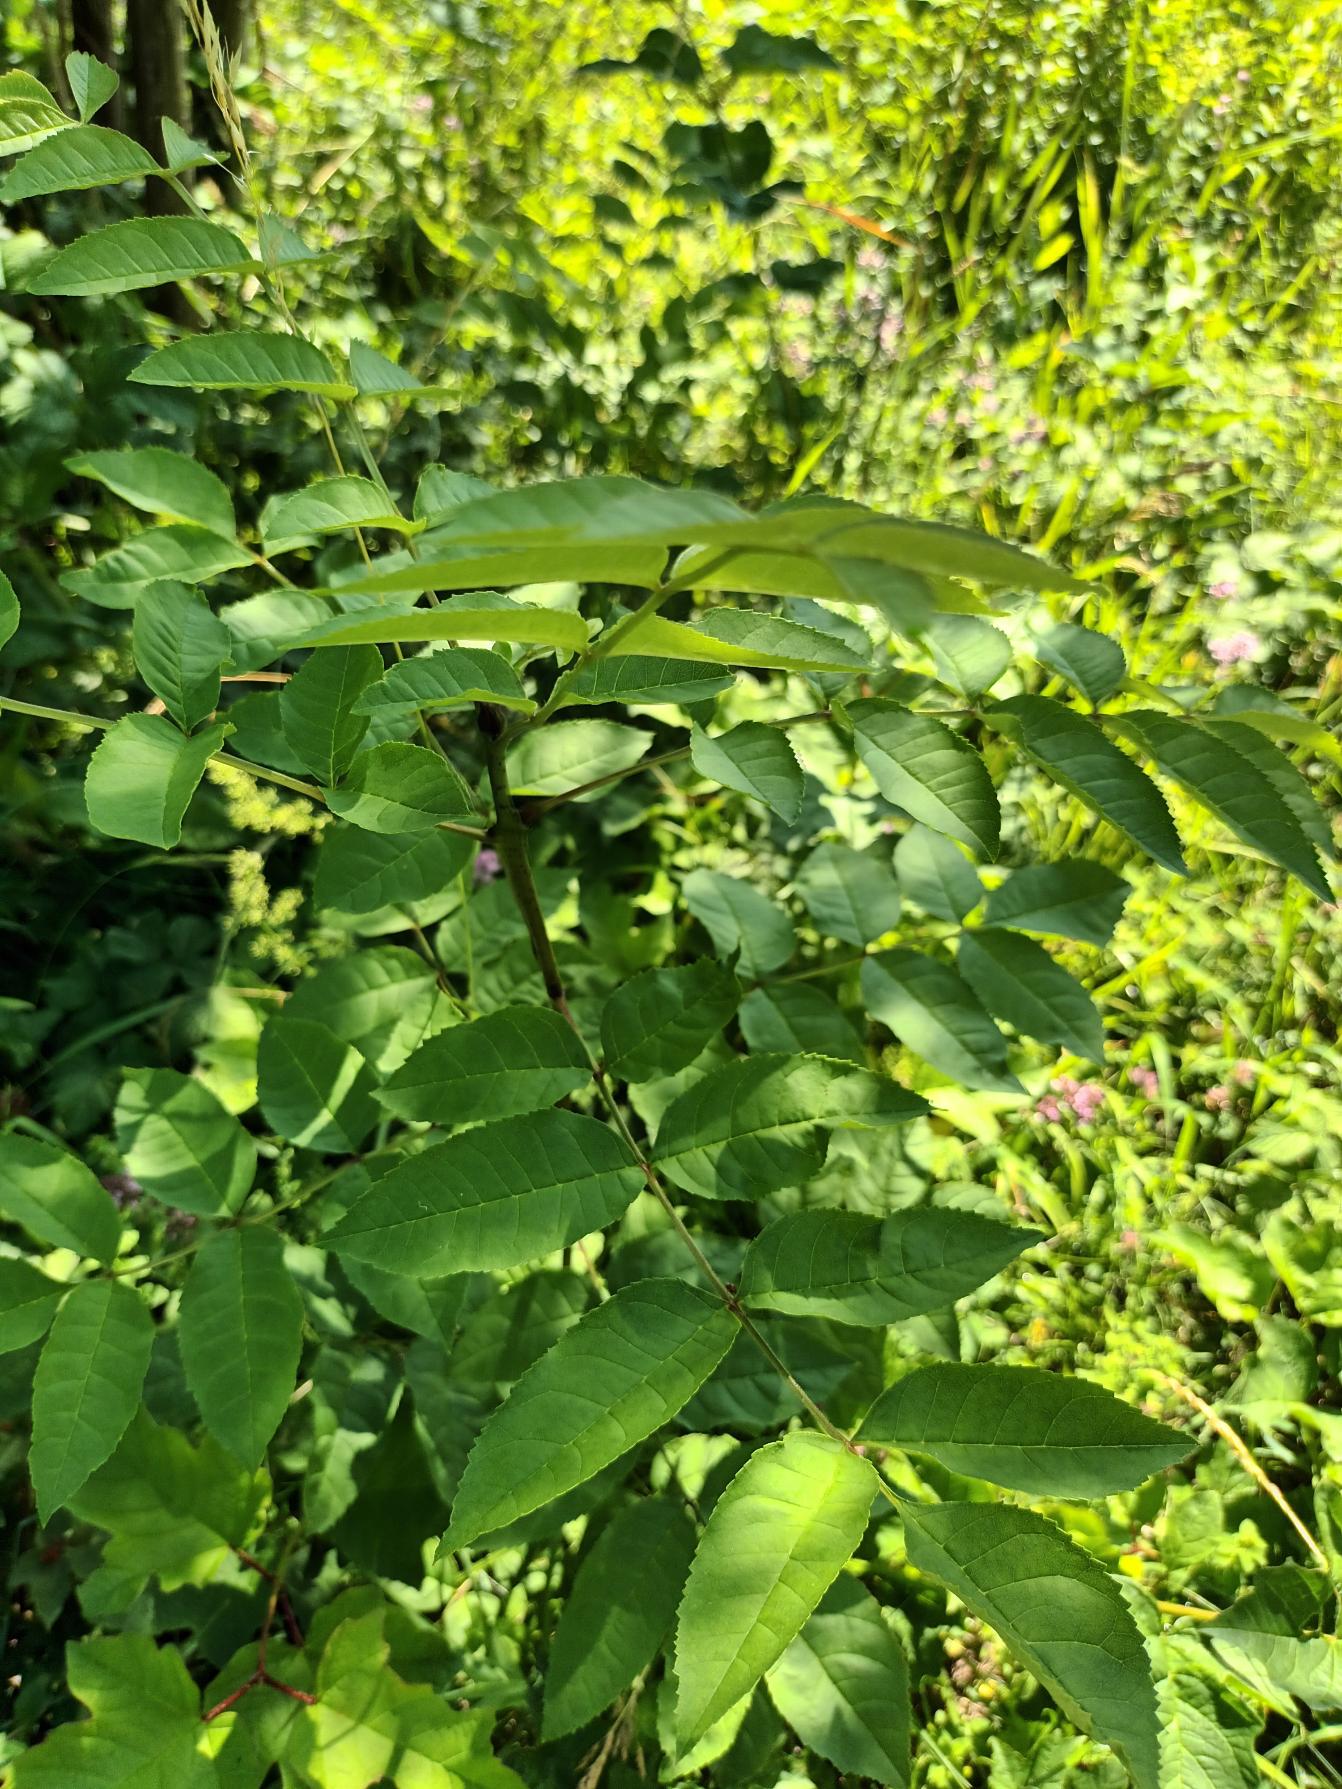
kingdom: Plantae
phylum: Tracheophyta
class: Magnoliopsida
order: Lamiales
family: Oleaceae
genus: Fraxinus
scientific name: Fraxinus excelsior
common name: Ask
